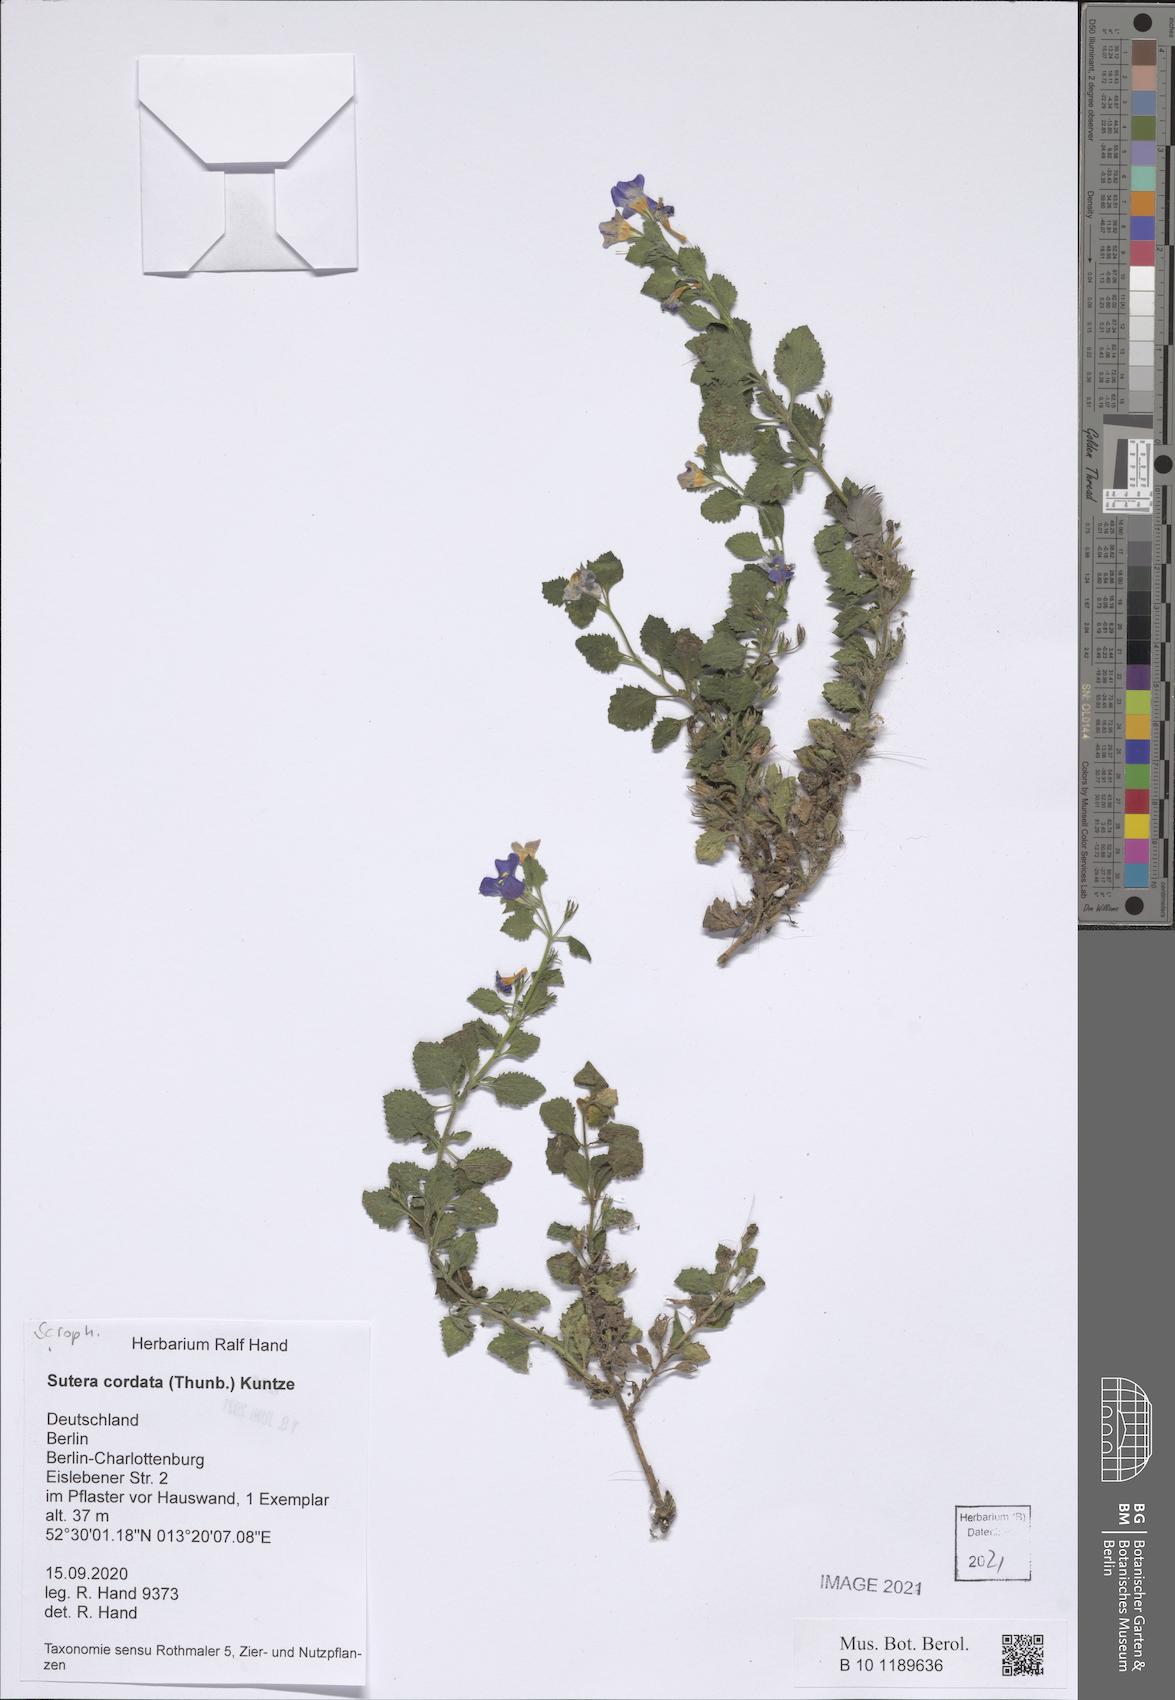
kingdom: Plantae
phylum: Tracheophyta
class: Magnoliopsida
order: Lamiales
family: Scrophulariaceae
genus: Chaenostoma
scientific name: Chaenostoma cordatum
